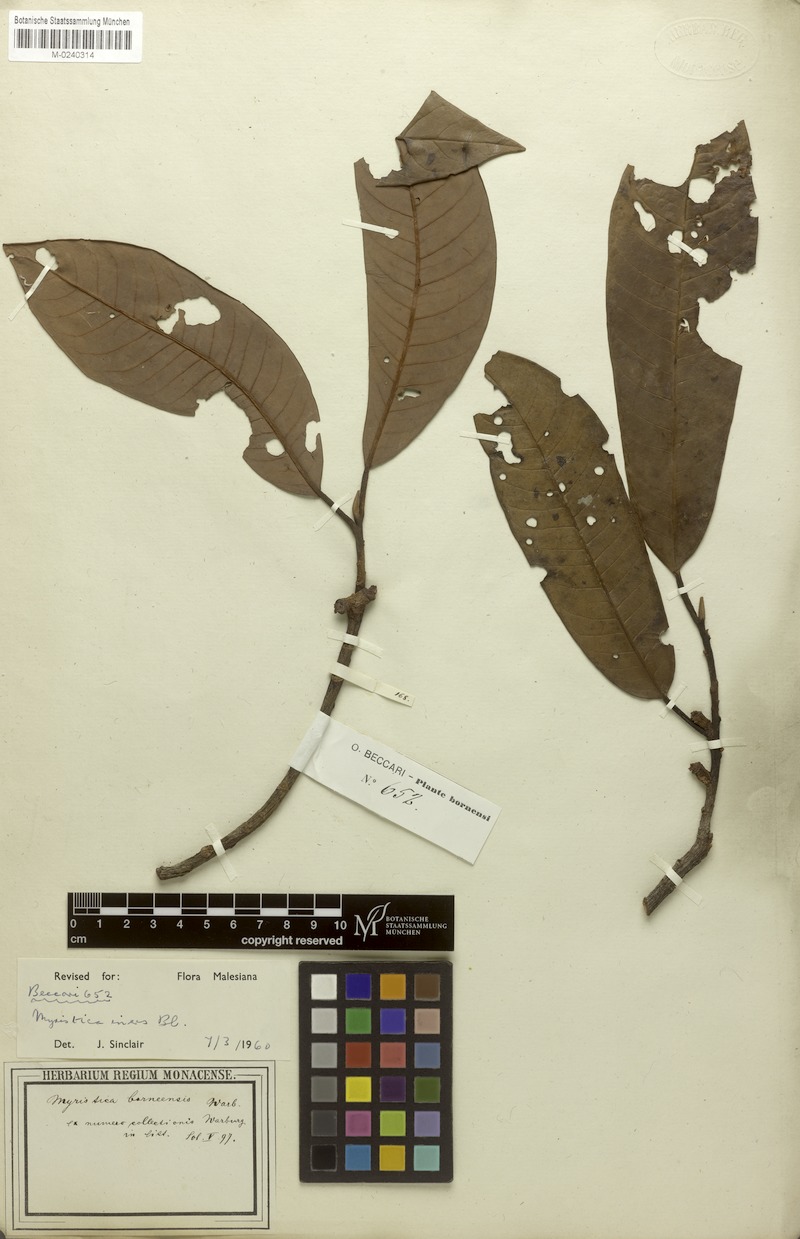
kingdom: Plantae
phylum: Tracheophyta
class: Magnoliopsida
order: Magnoliales
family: Myristicaceae
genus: Myristica
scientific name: Myristica iners
